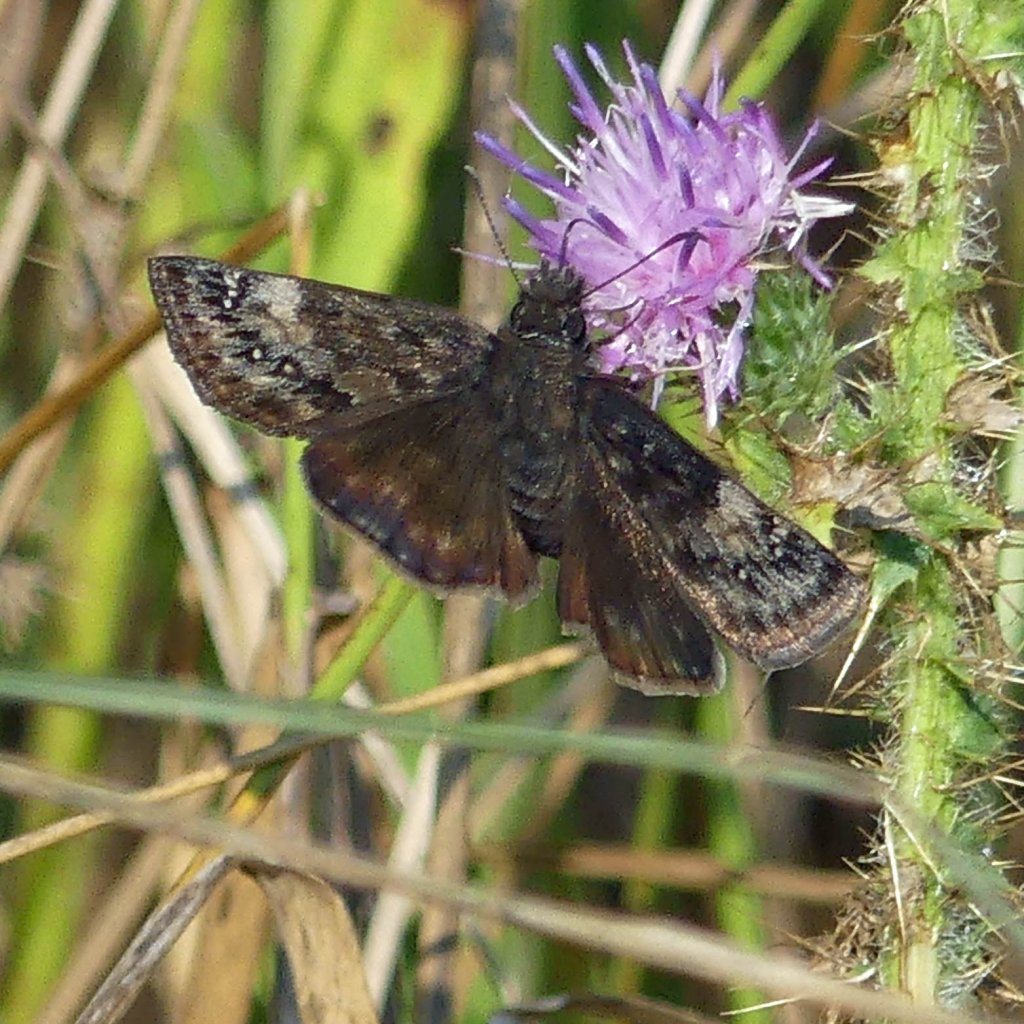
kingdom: Animalia
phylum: Arthropoda
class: Insecta
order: Lepidoptera
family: Hesperiidae
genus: Gesta
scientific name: Gesta
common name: Wild Indigo Duskywing
